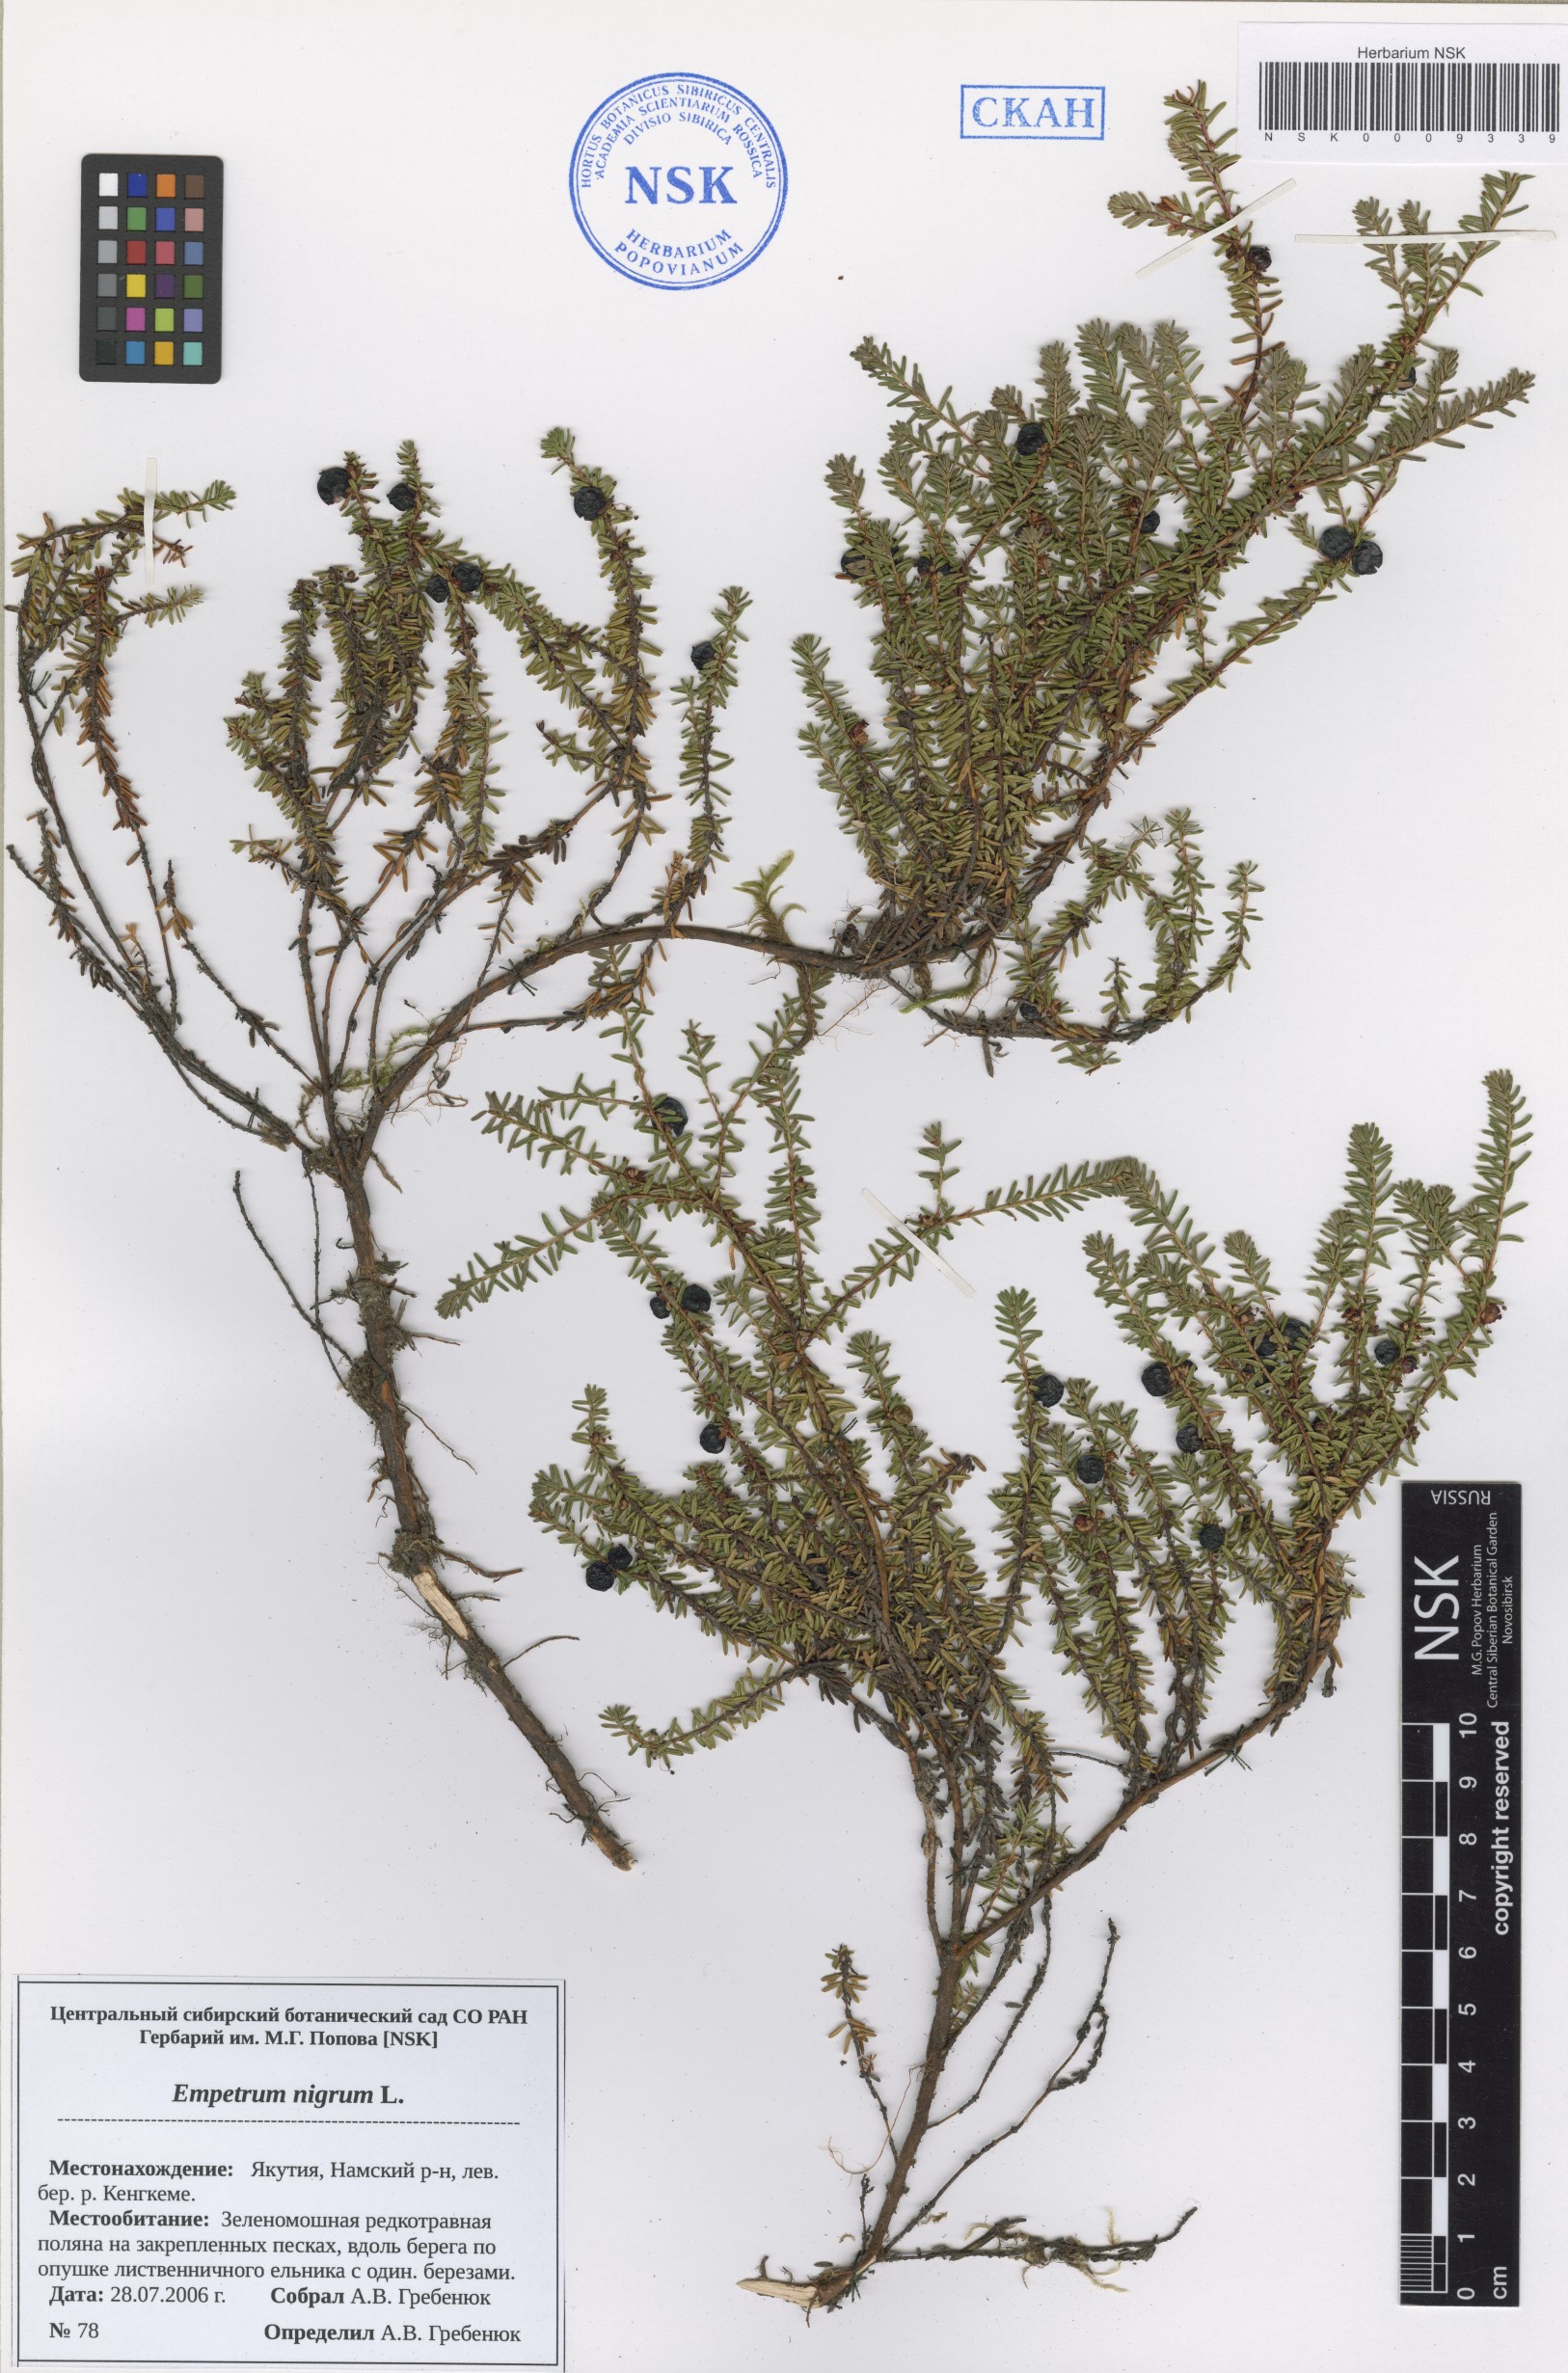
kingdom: Plantae
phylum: Tracheophyta
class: Magnoliopsida
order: Ericales
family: Ericaceae
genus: Empetrum
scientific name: Empetrum nigrum
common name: Black crowberry
